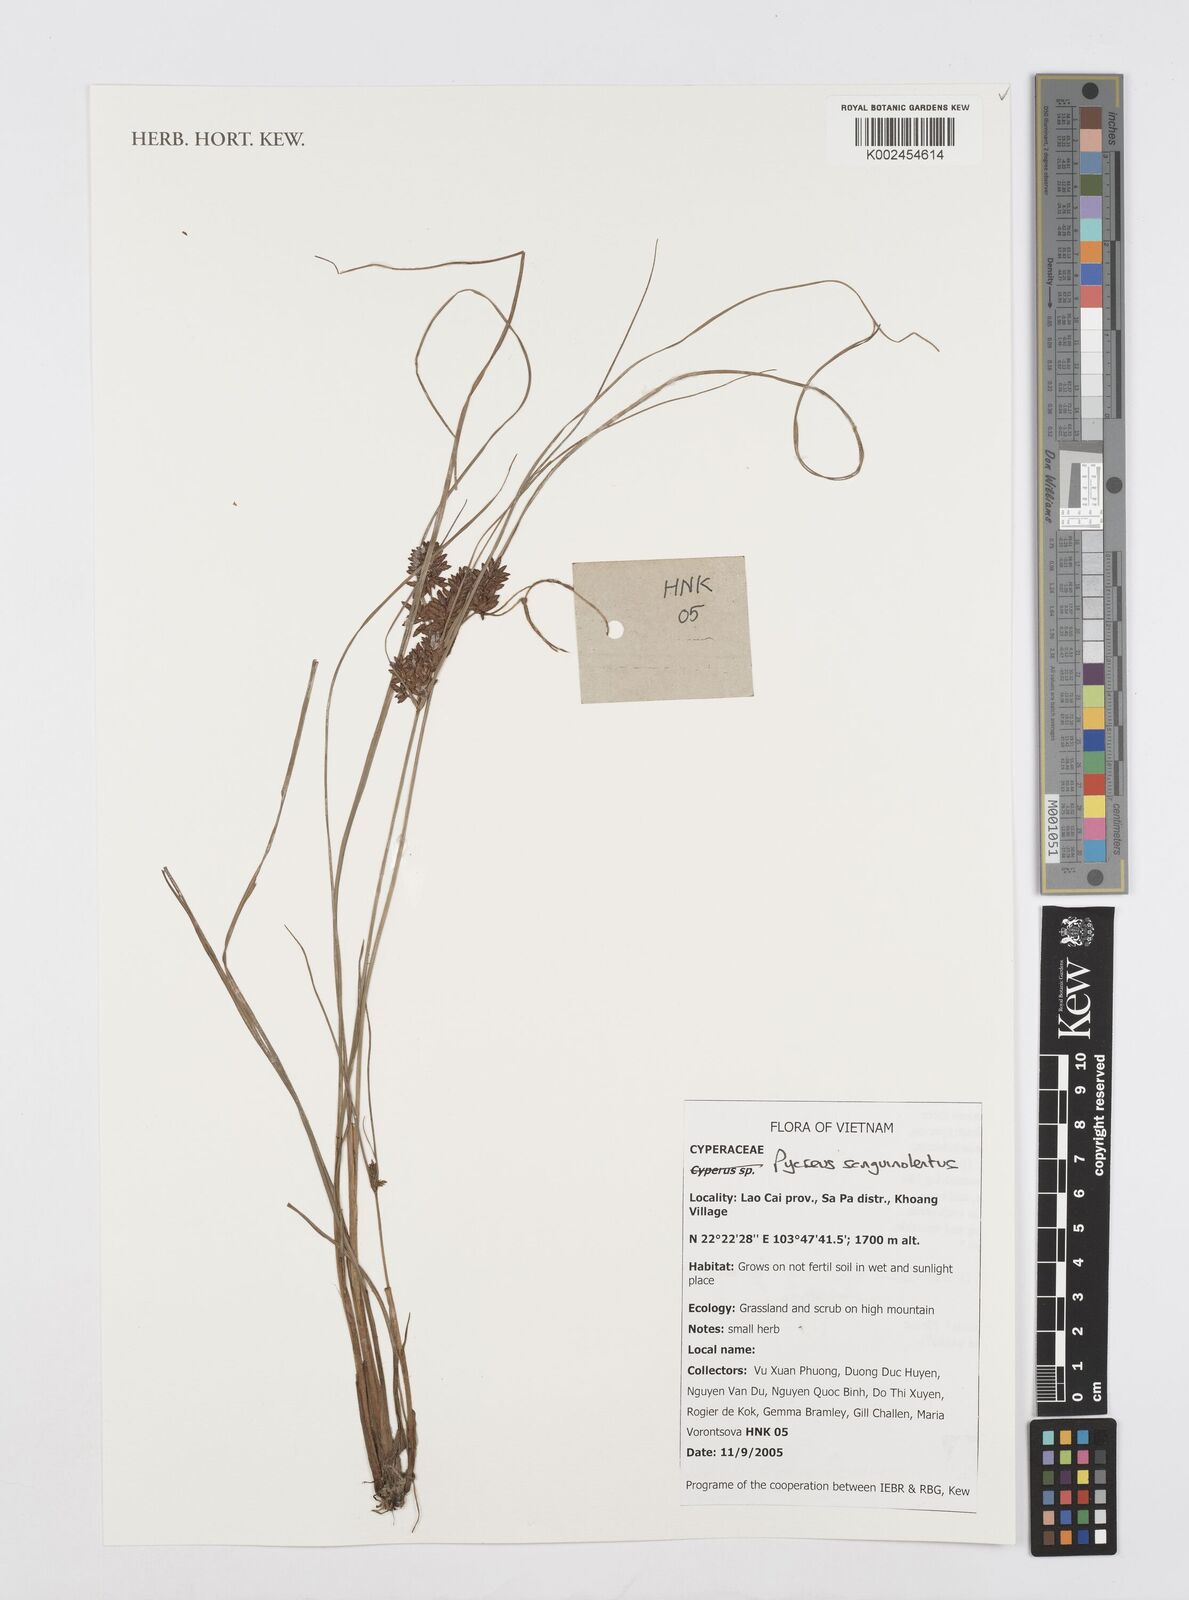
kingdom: Plantae
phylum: Tracheophyta
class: Liliopsida
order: Poales
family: Cyperaceae
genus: Cyperus
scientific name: Cyperus sanguinolentus
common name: Purpleglume flatsedge
